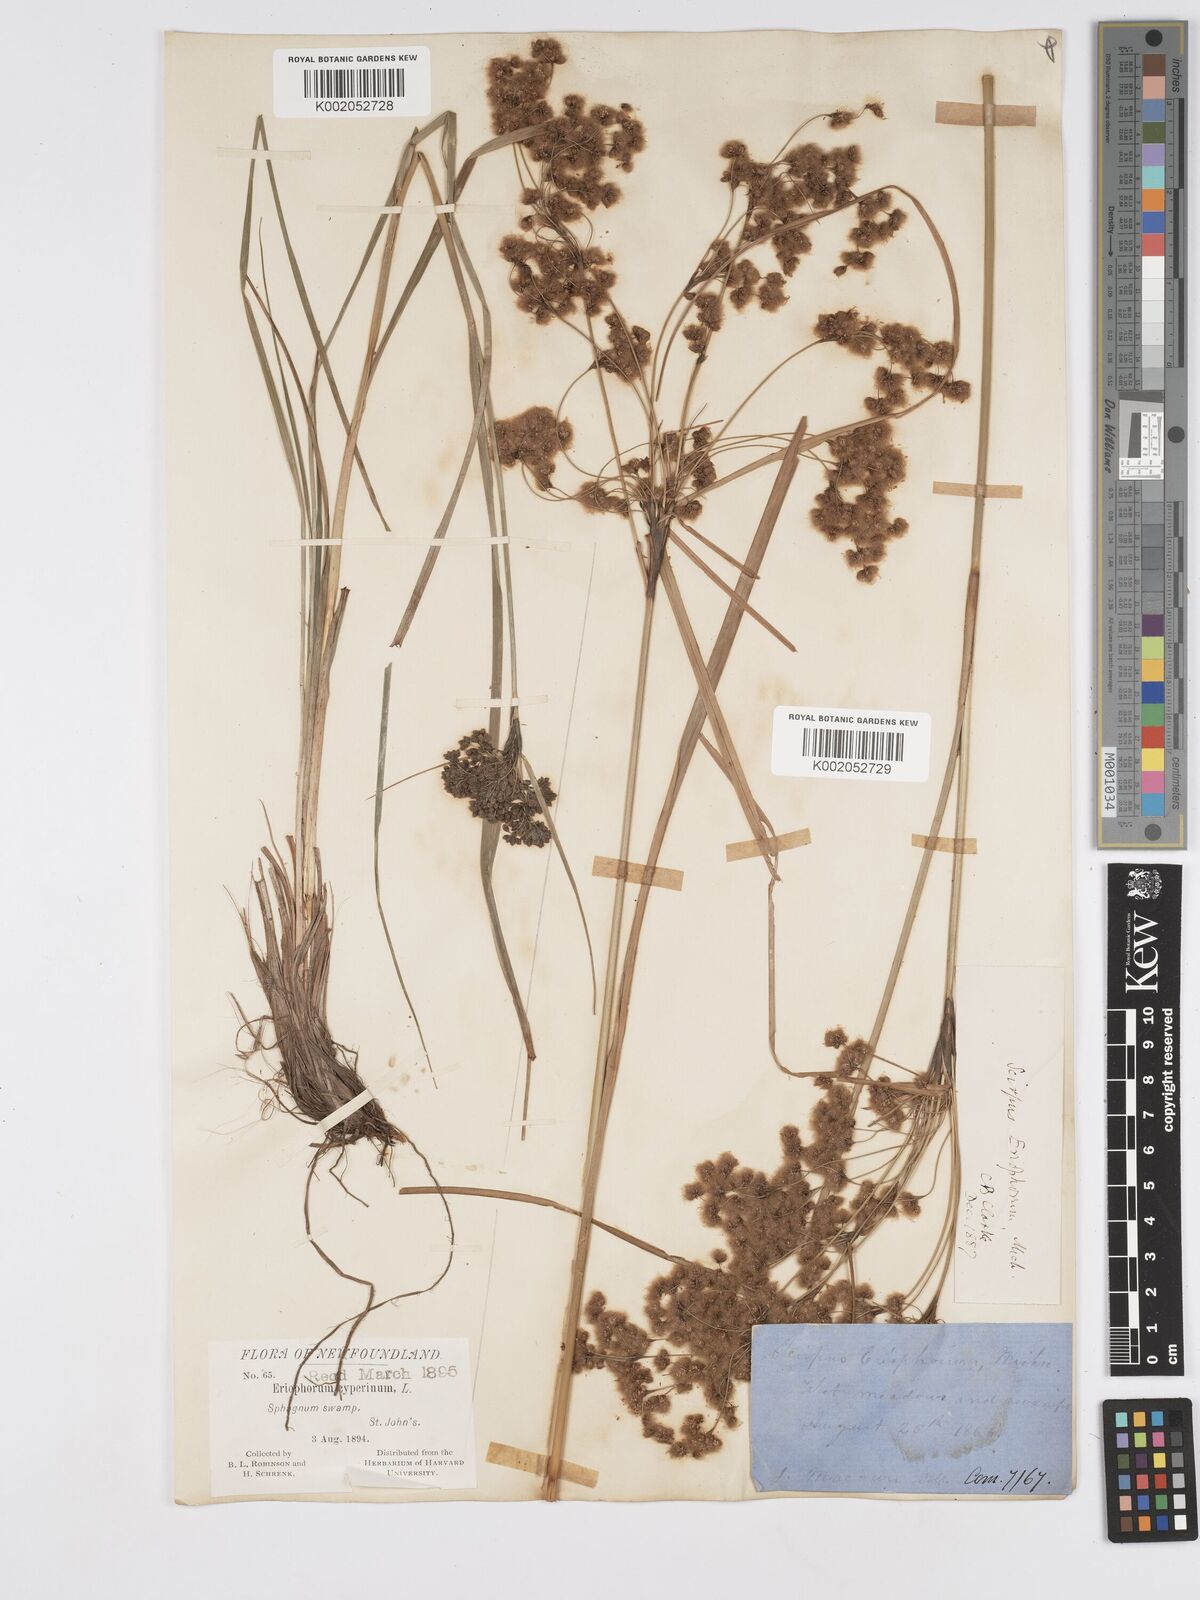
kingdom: Plantae
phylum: Tracheophyta
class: Liliopsida
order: Poales
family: Cyperaceae
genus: Scirpus
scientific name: Scirpus cyperinus
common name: Black-sheathed bulrush
